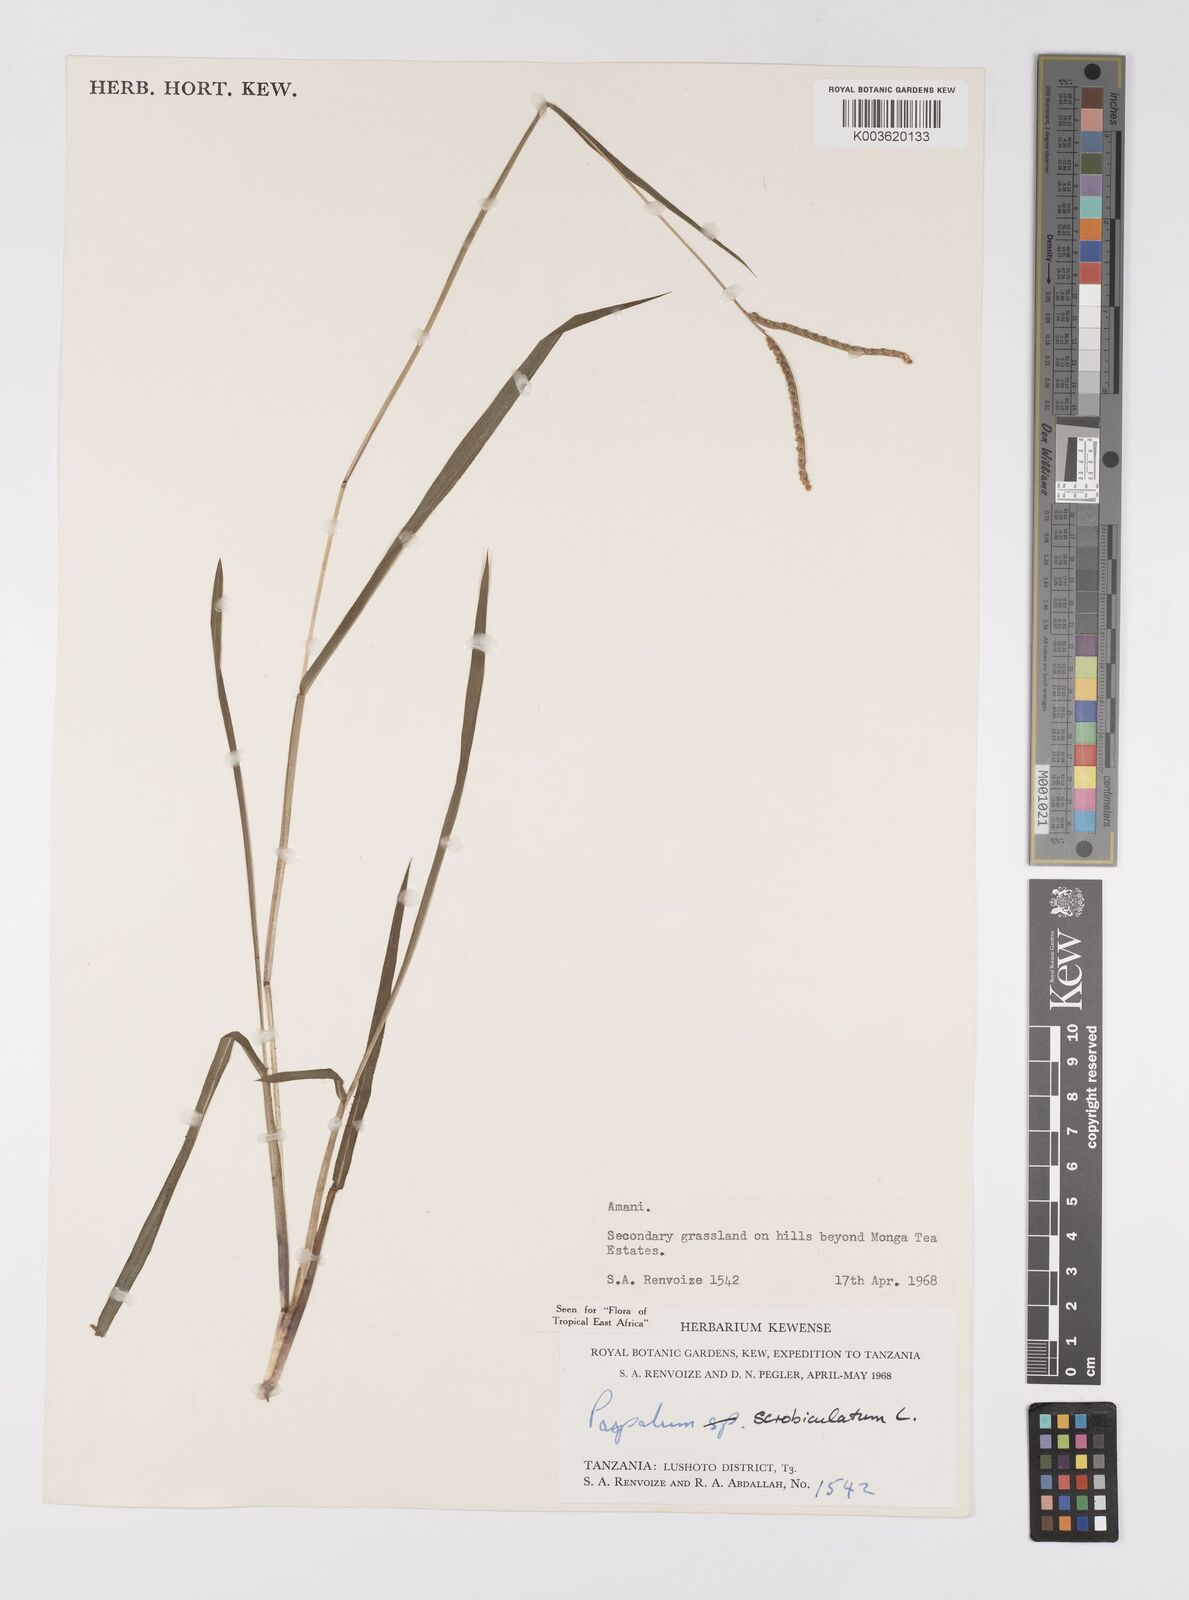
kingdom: Plantae
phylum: Tracheophyta
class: Liliopsida
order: Poales
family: Poaceae
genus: Paspalum
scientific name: Paspalum scrobiculatum
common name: Kodo millet
